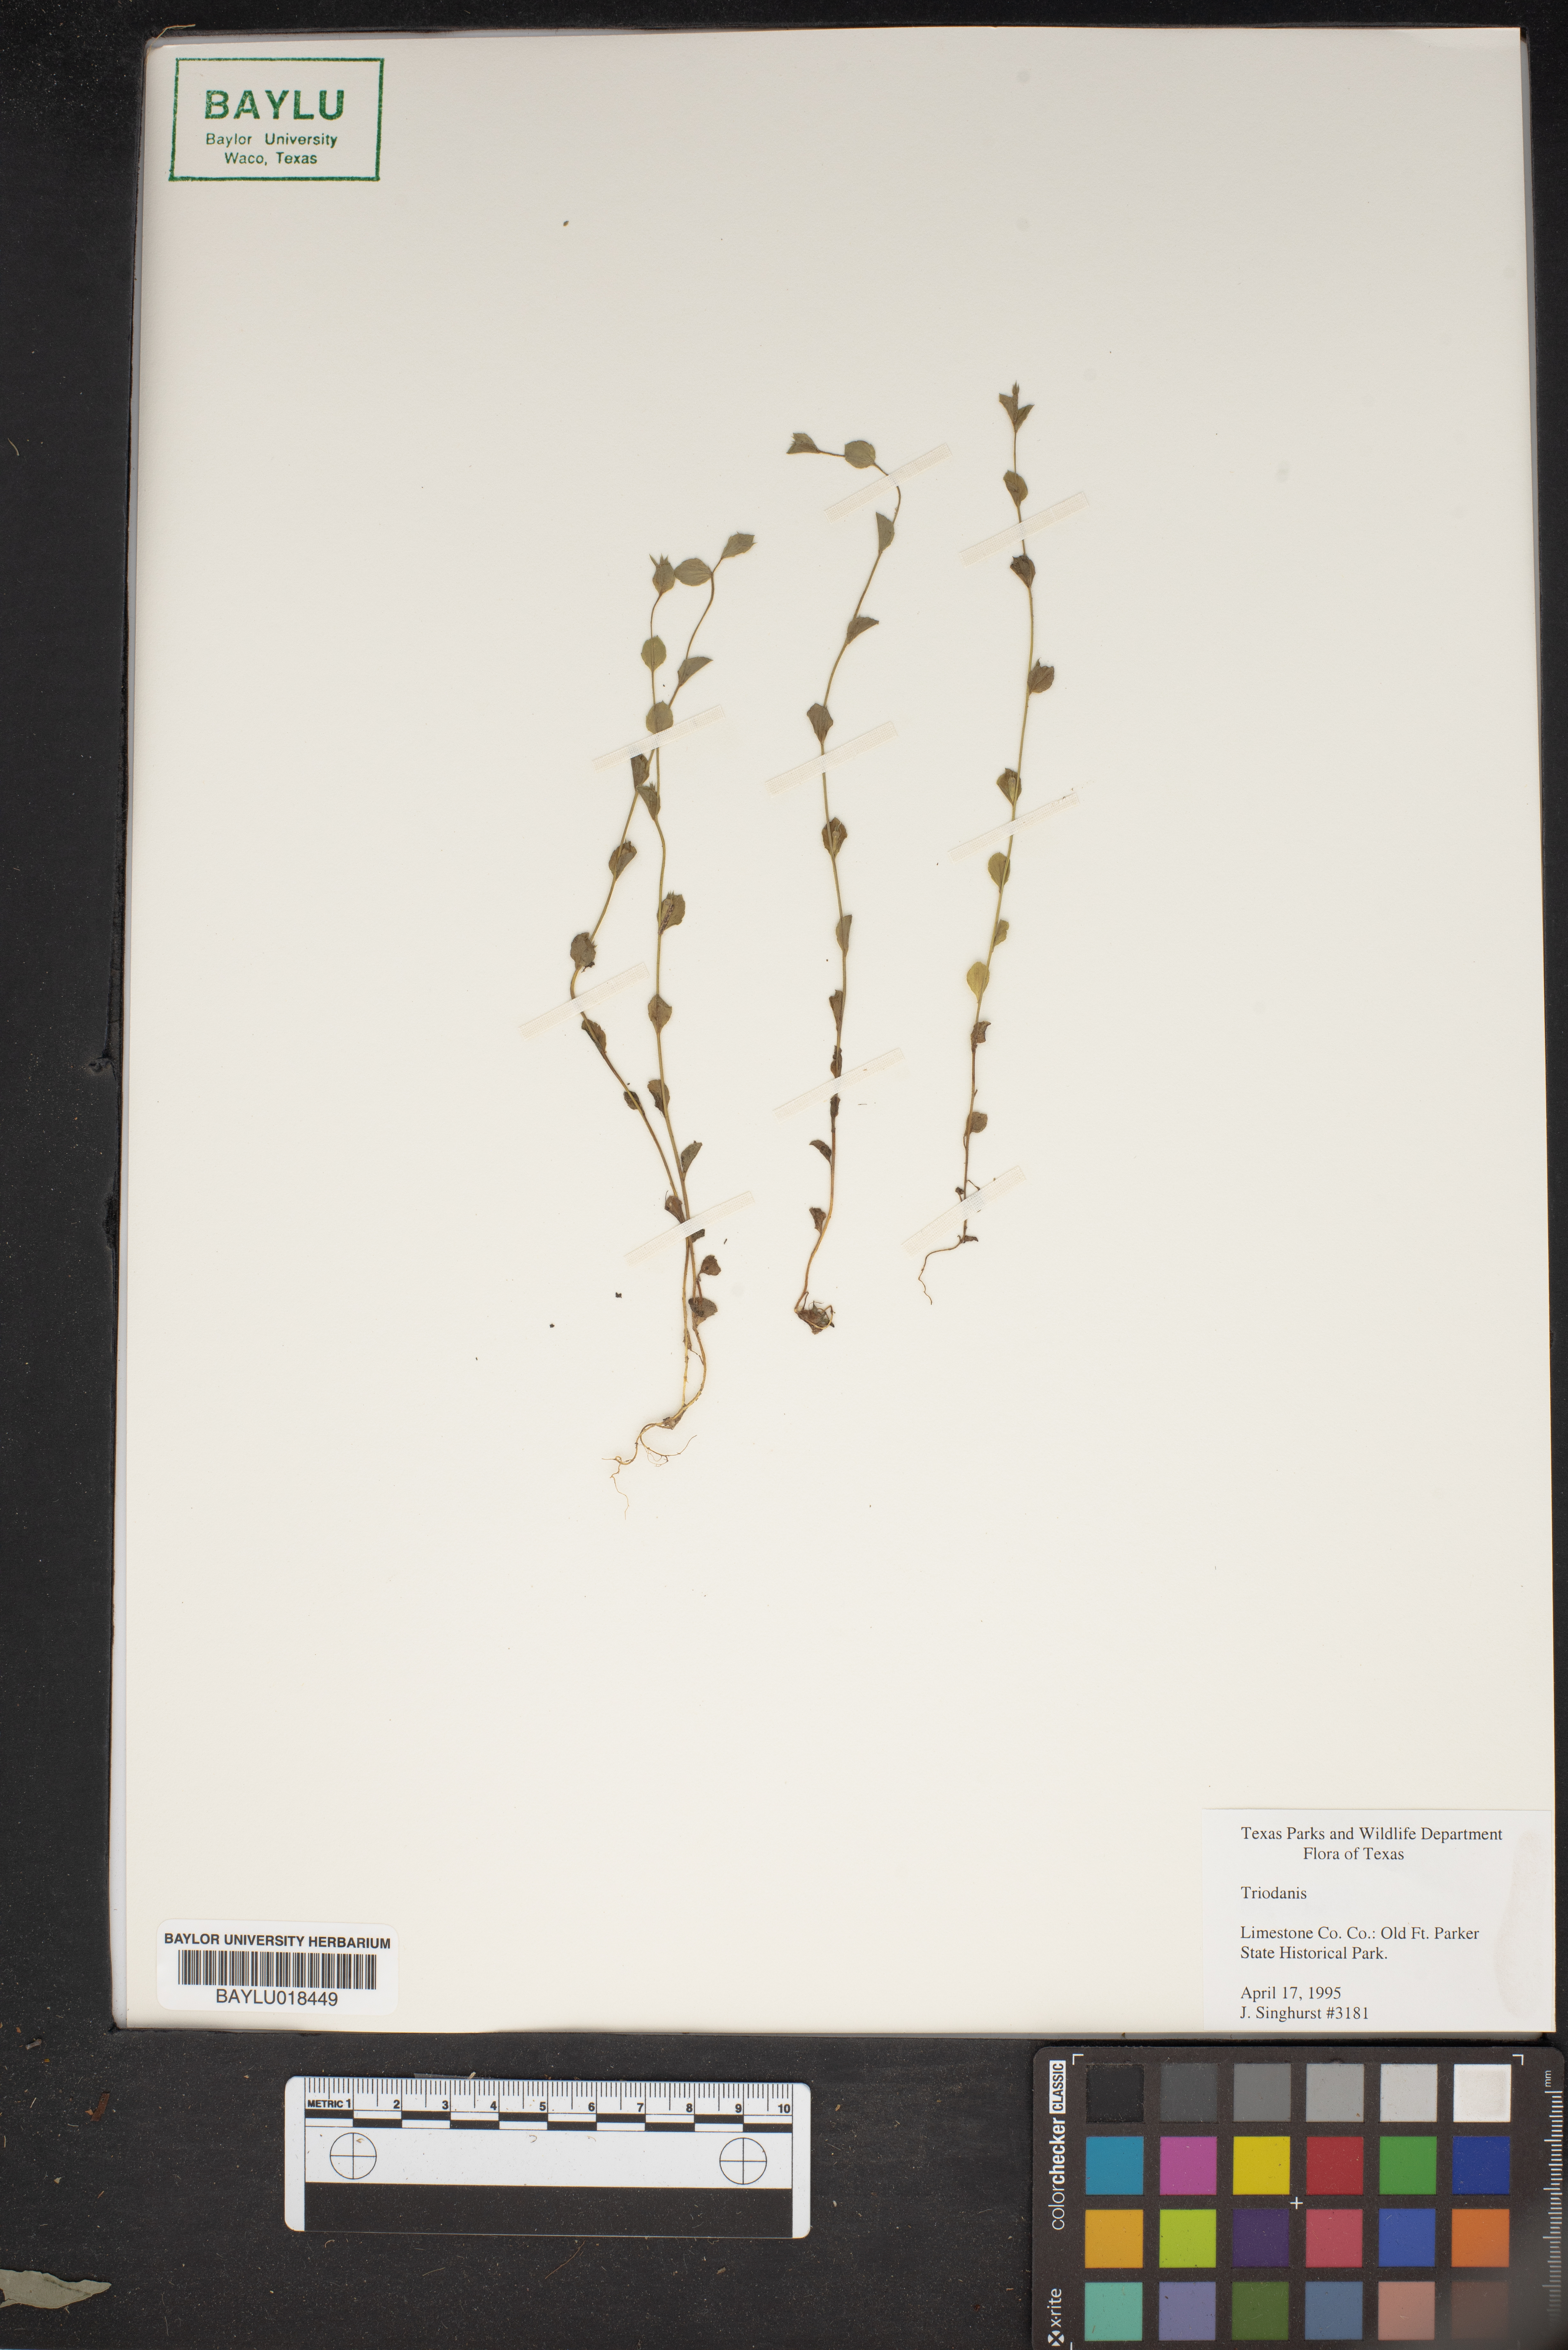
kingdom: Plantae
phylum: Tracheophyta
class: Magnoliopsida
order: Asterales
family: Campanulaceae
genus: Triodanis
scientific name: Triodanis
